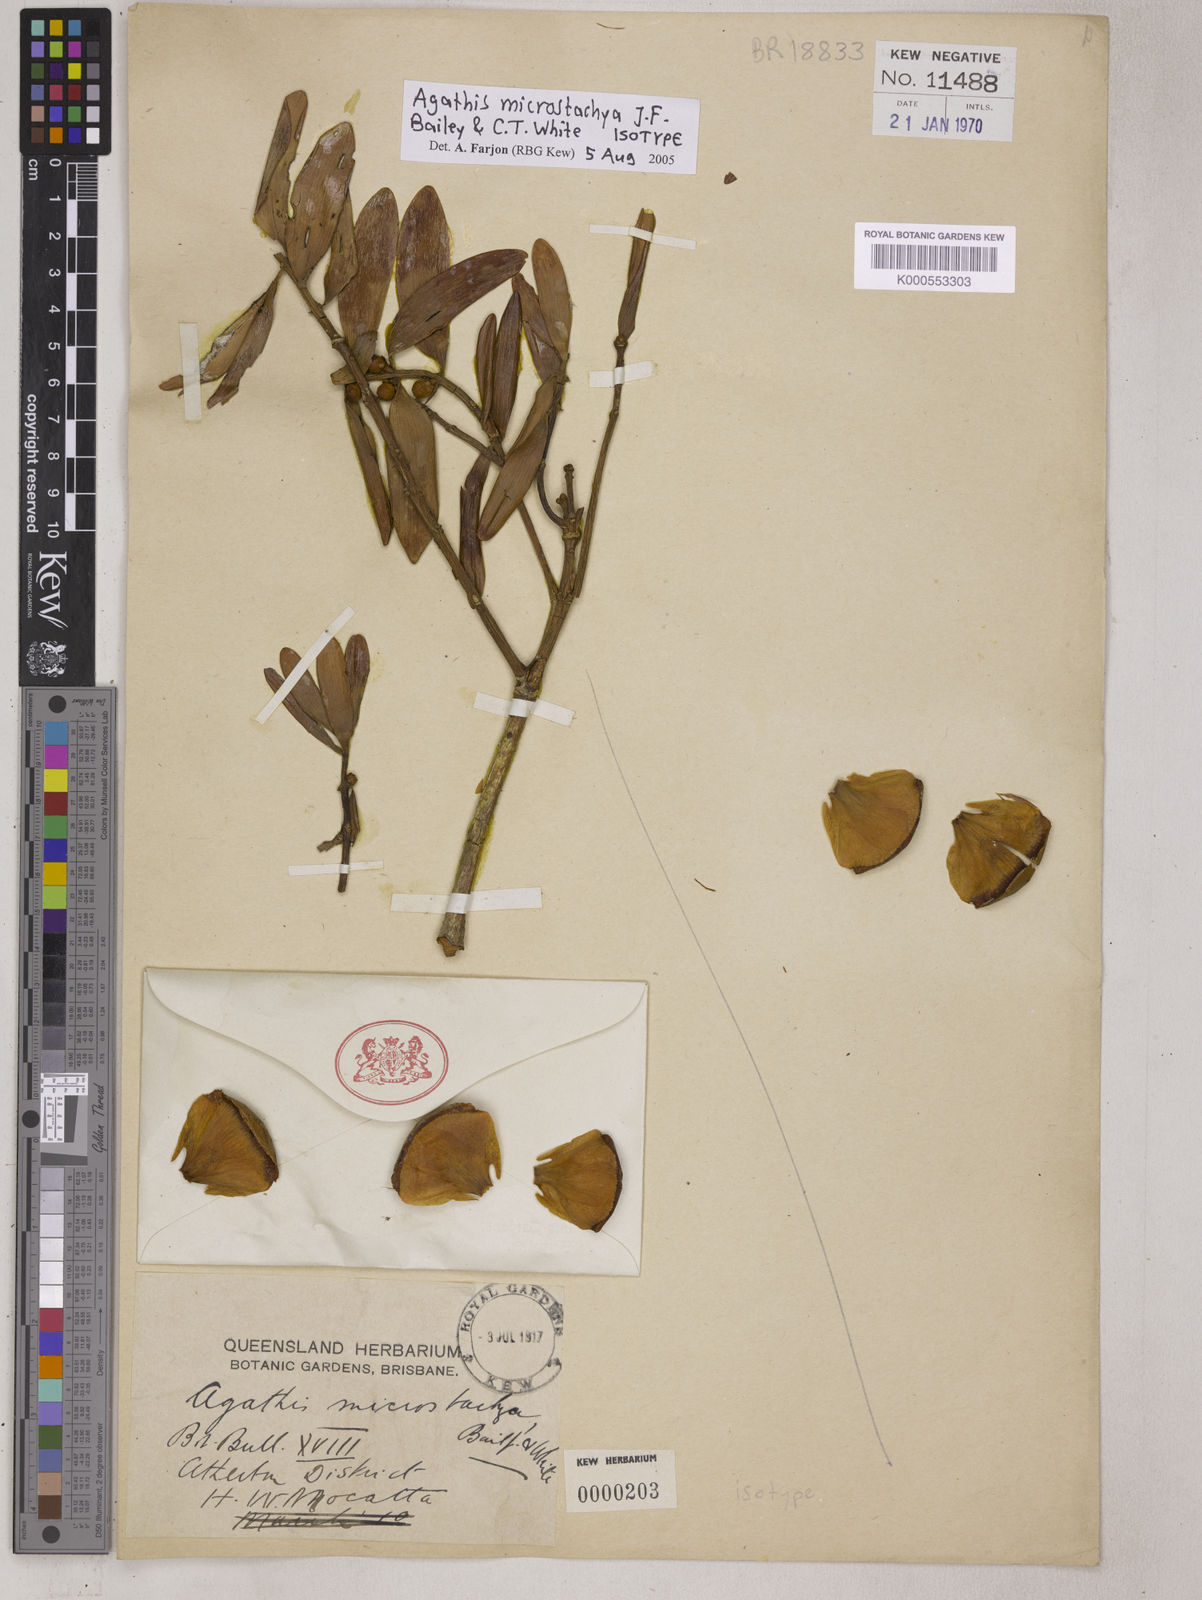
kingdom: Plantae
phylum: Tracheophyta
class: Pinopsida
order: Pinales
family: Araucariaceae
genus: Agathis
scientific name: Agathis microstachya
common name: Bull kauri
